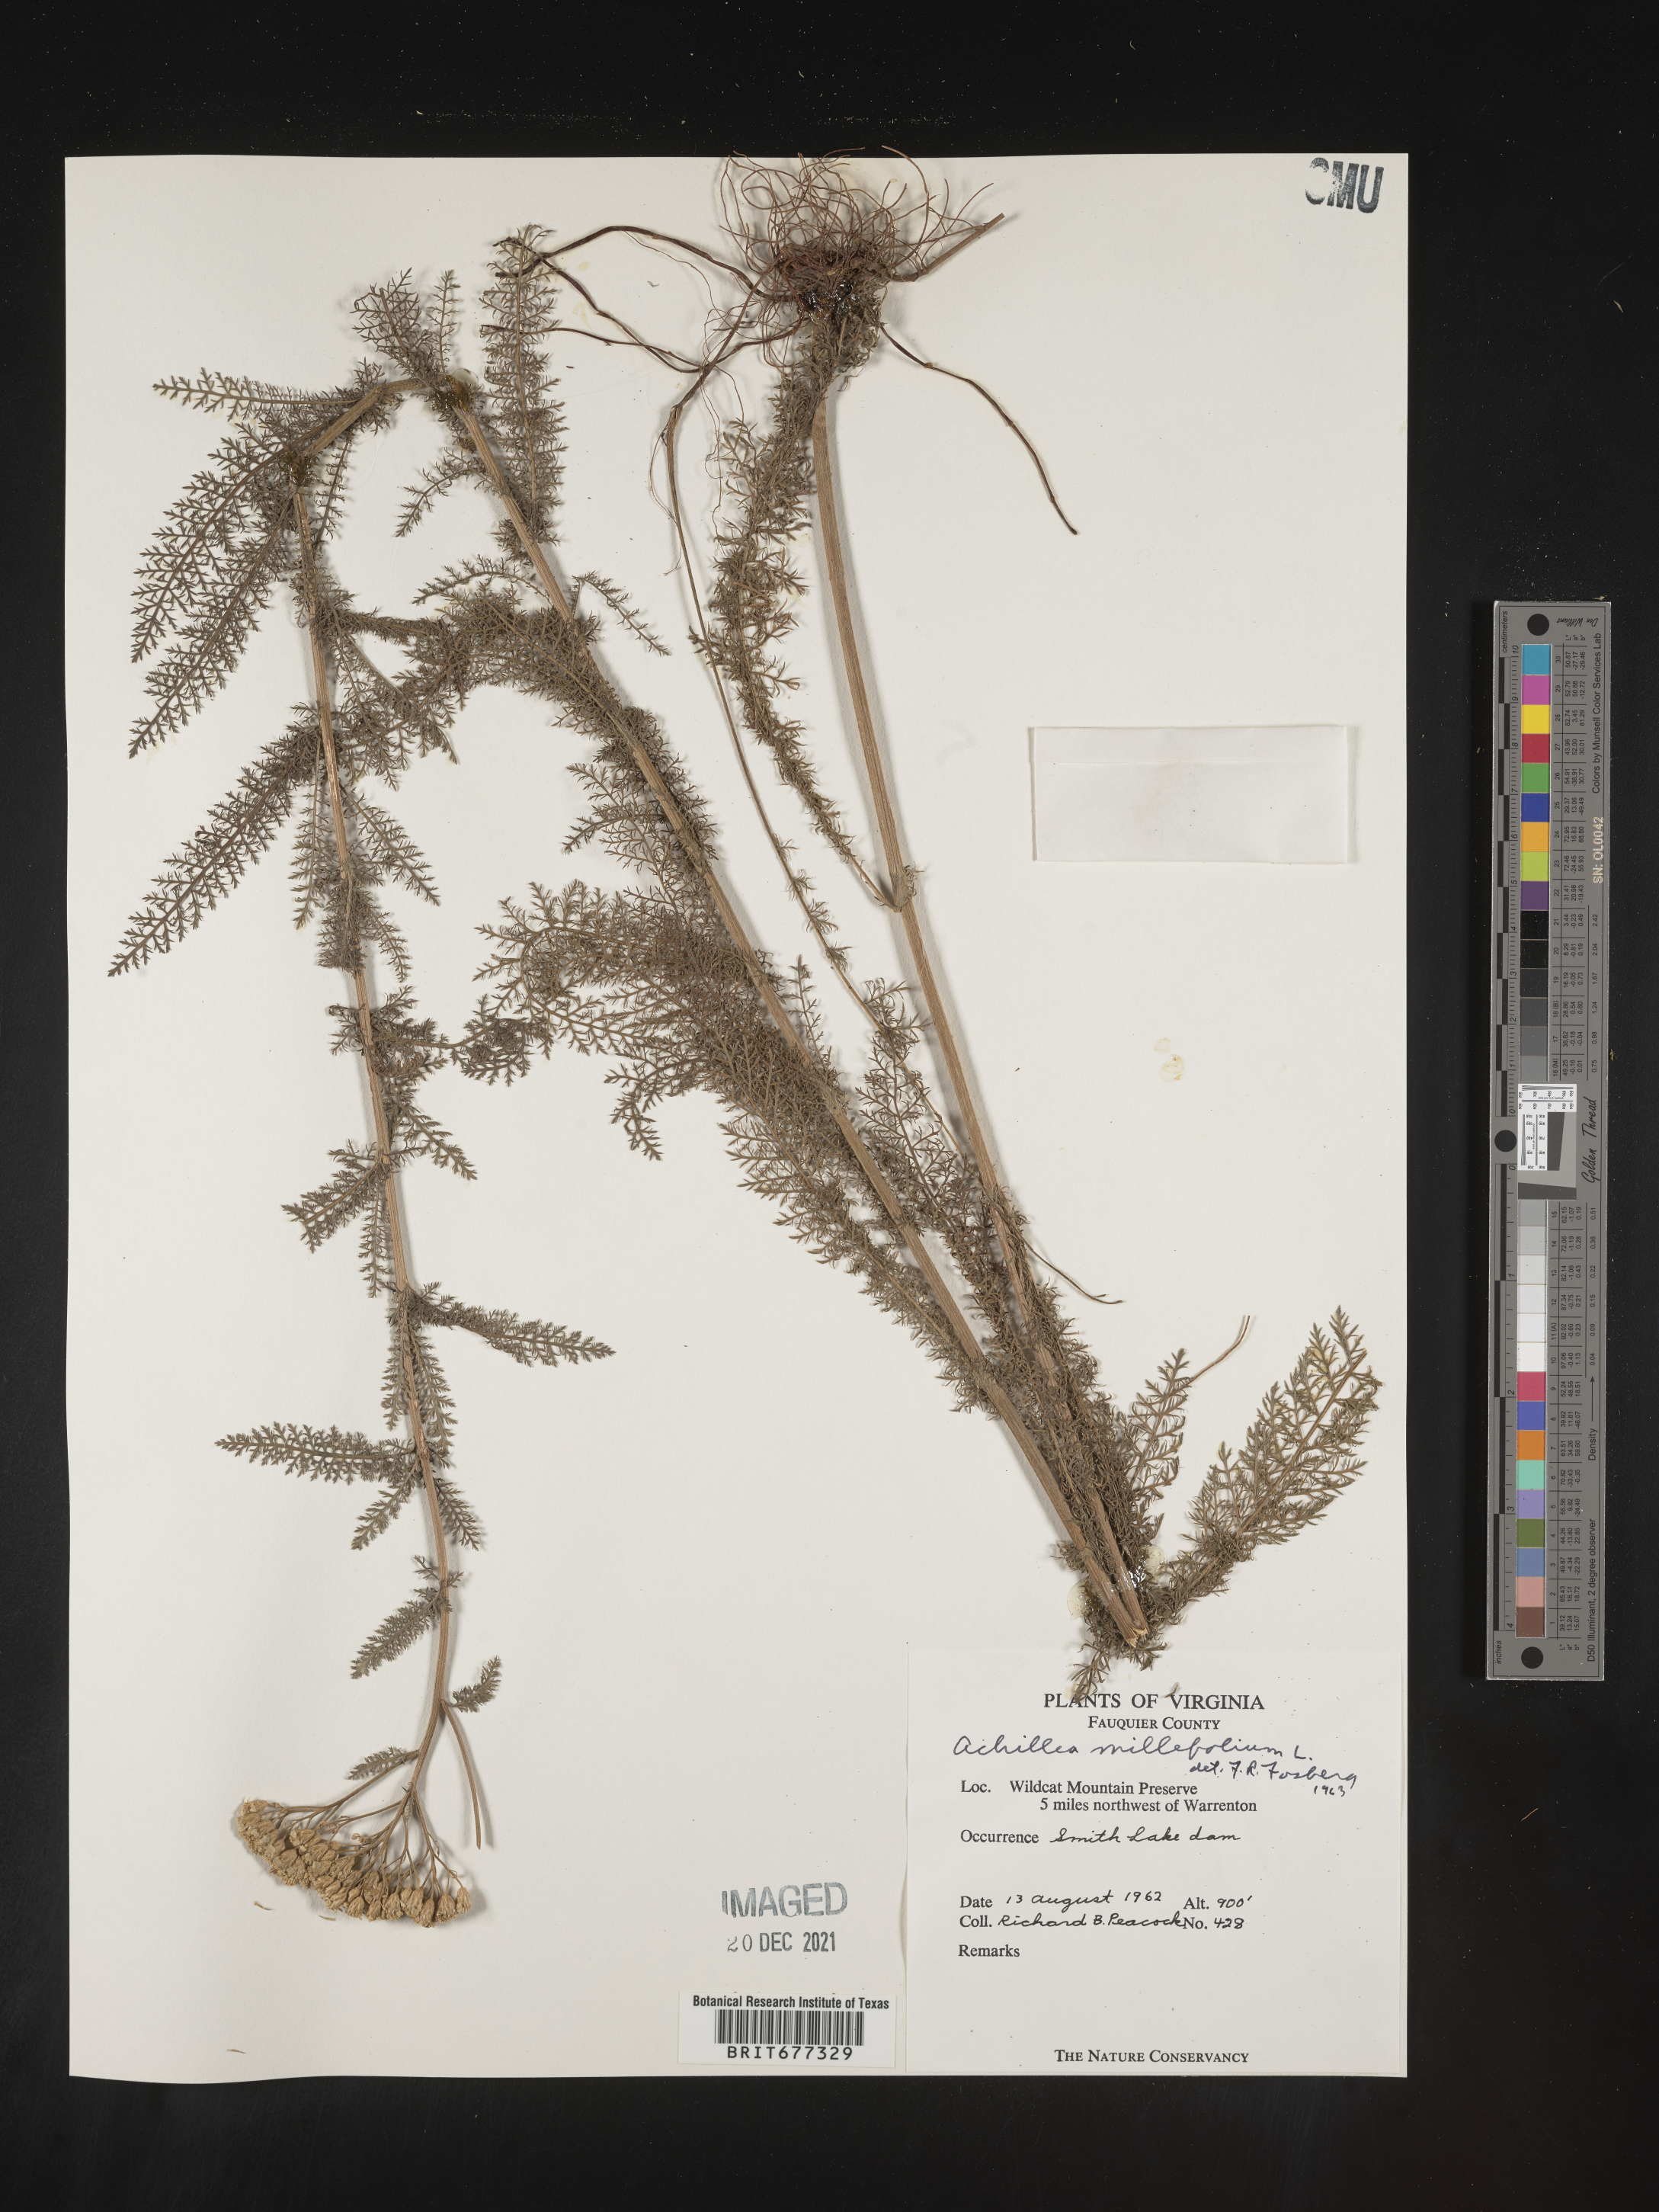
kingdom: Plantae
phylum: Tracheophyta
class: Magnoliopsida
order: Asterales
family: Asteraceae
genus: Achillea
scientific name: Achillea millefolium
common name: Yarrow
